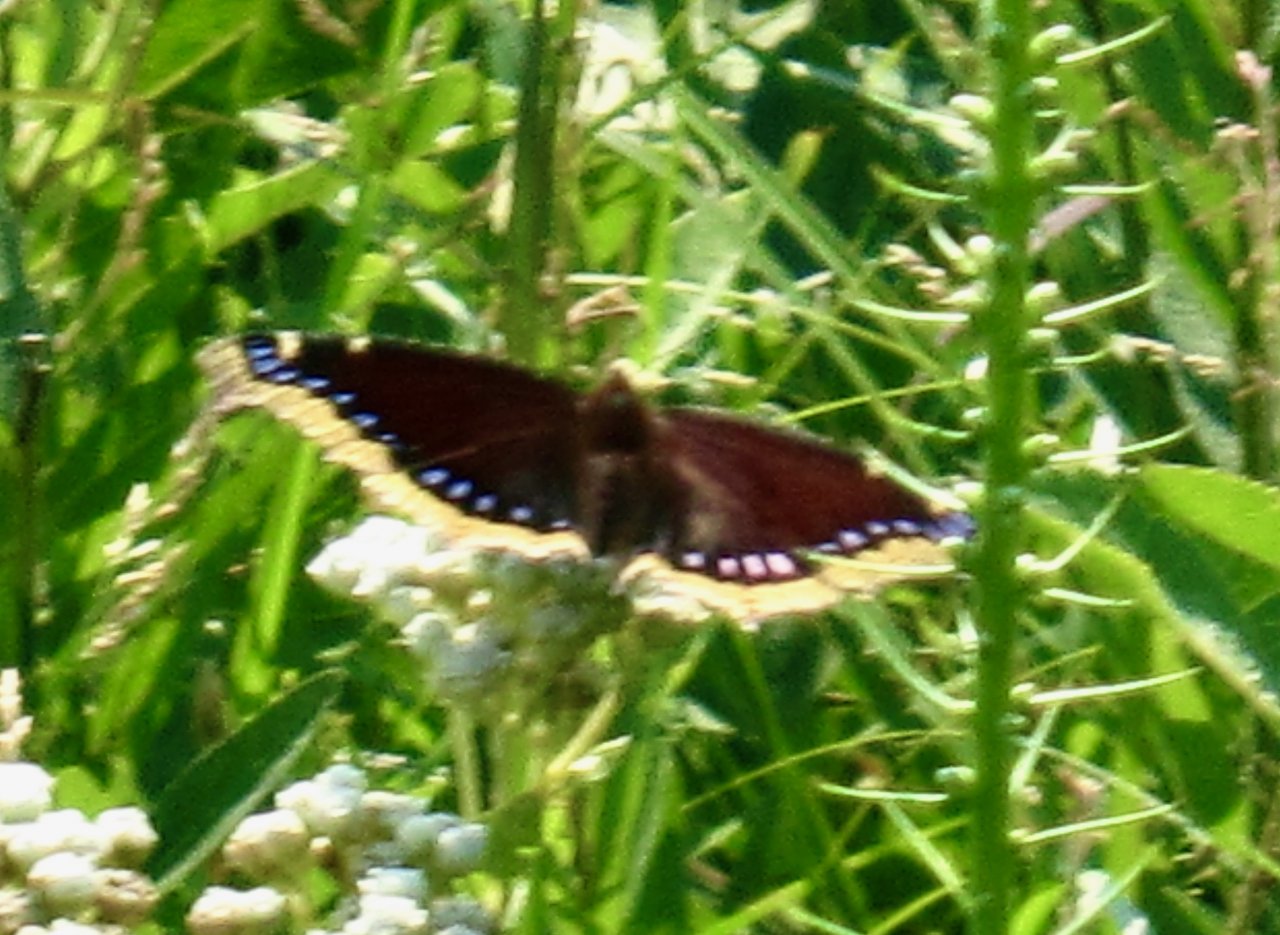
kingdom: Animalia
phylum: Arthropoda
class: Insecta
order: Lepidoptera
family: Nymphalidae
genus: Nymphalis
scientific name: Nymphalis antiopa
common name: Mourning Cloak
